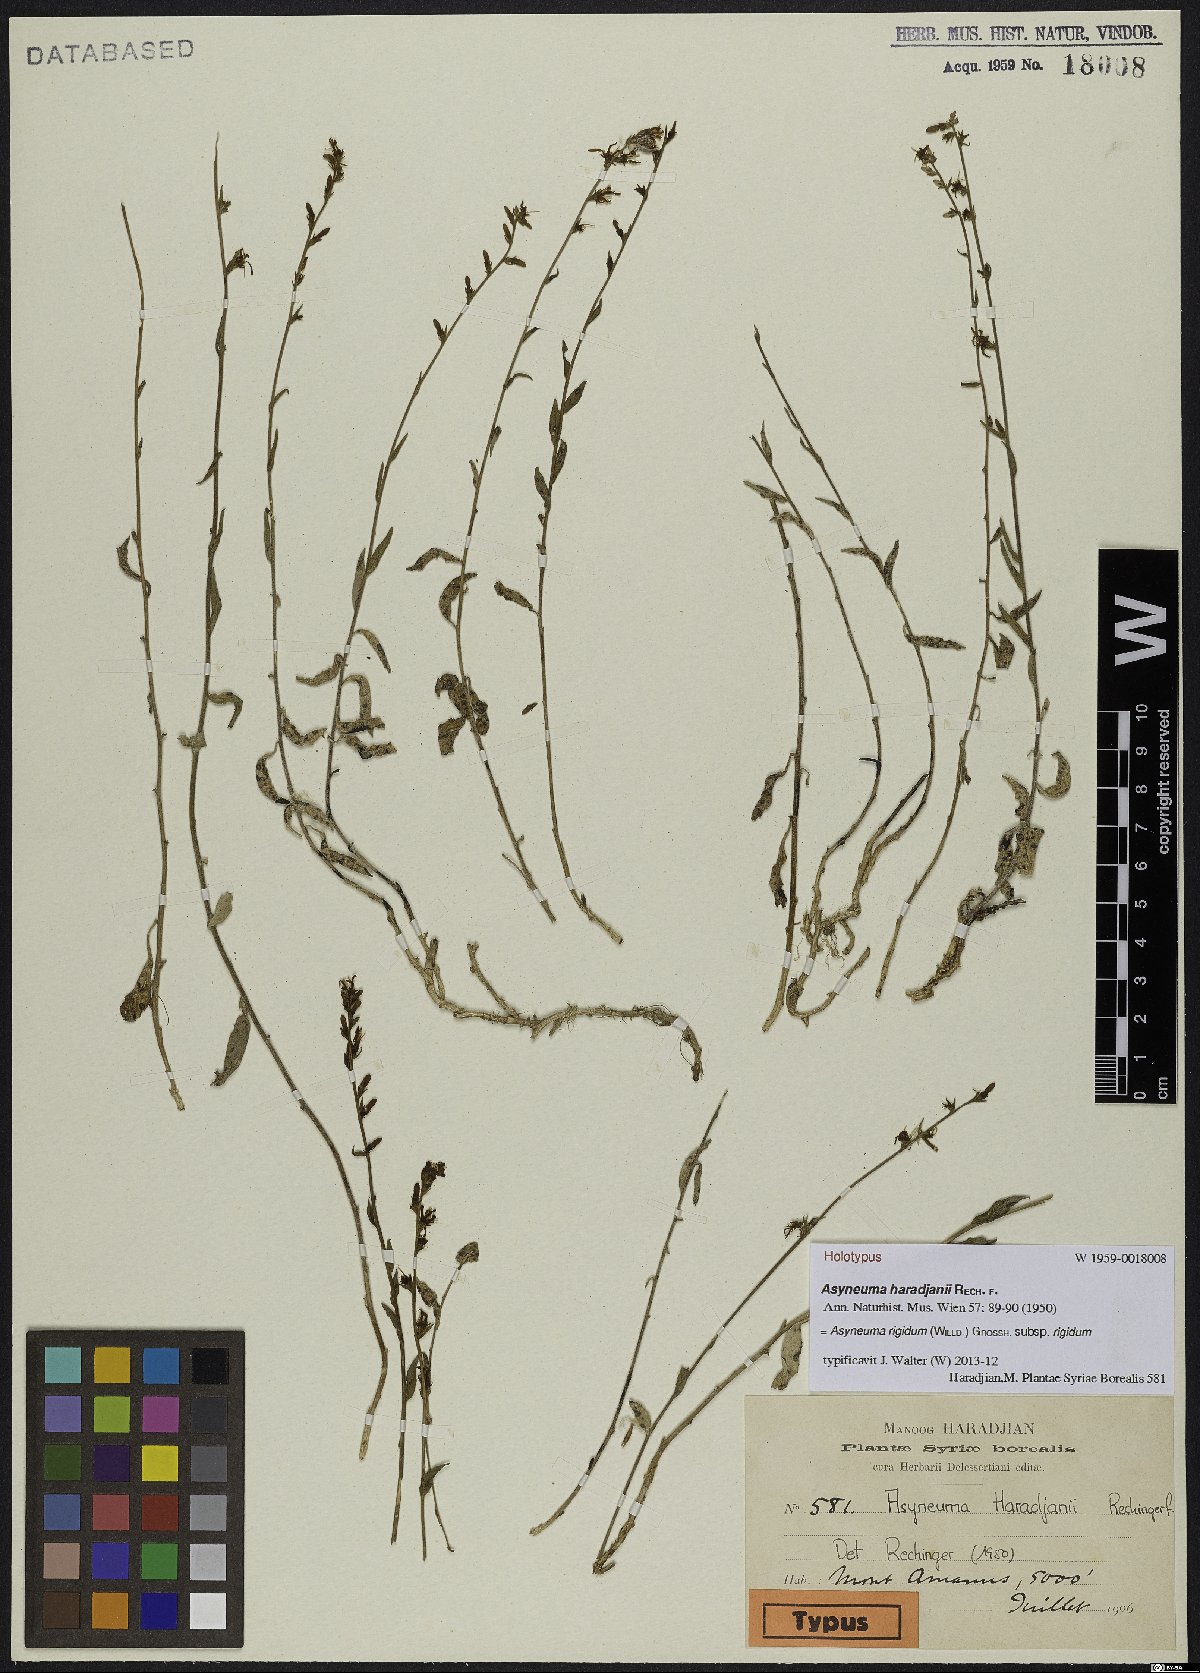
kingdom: Plantae
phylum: Tracheophyta
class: Magnoliopsida
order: Asterales
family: Campanulaceae
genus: Asyneuma
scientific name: Asyneuma rigidum
